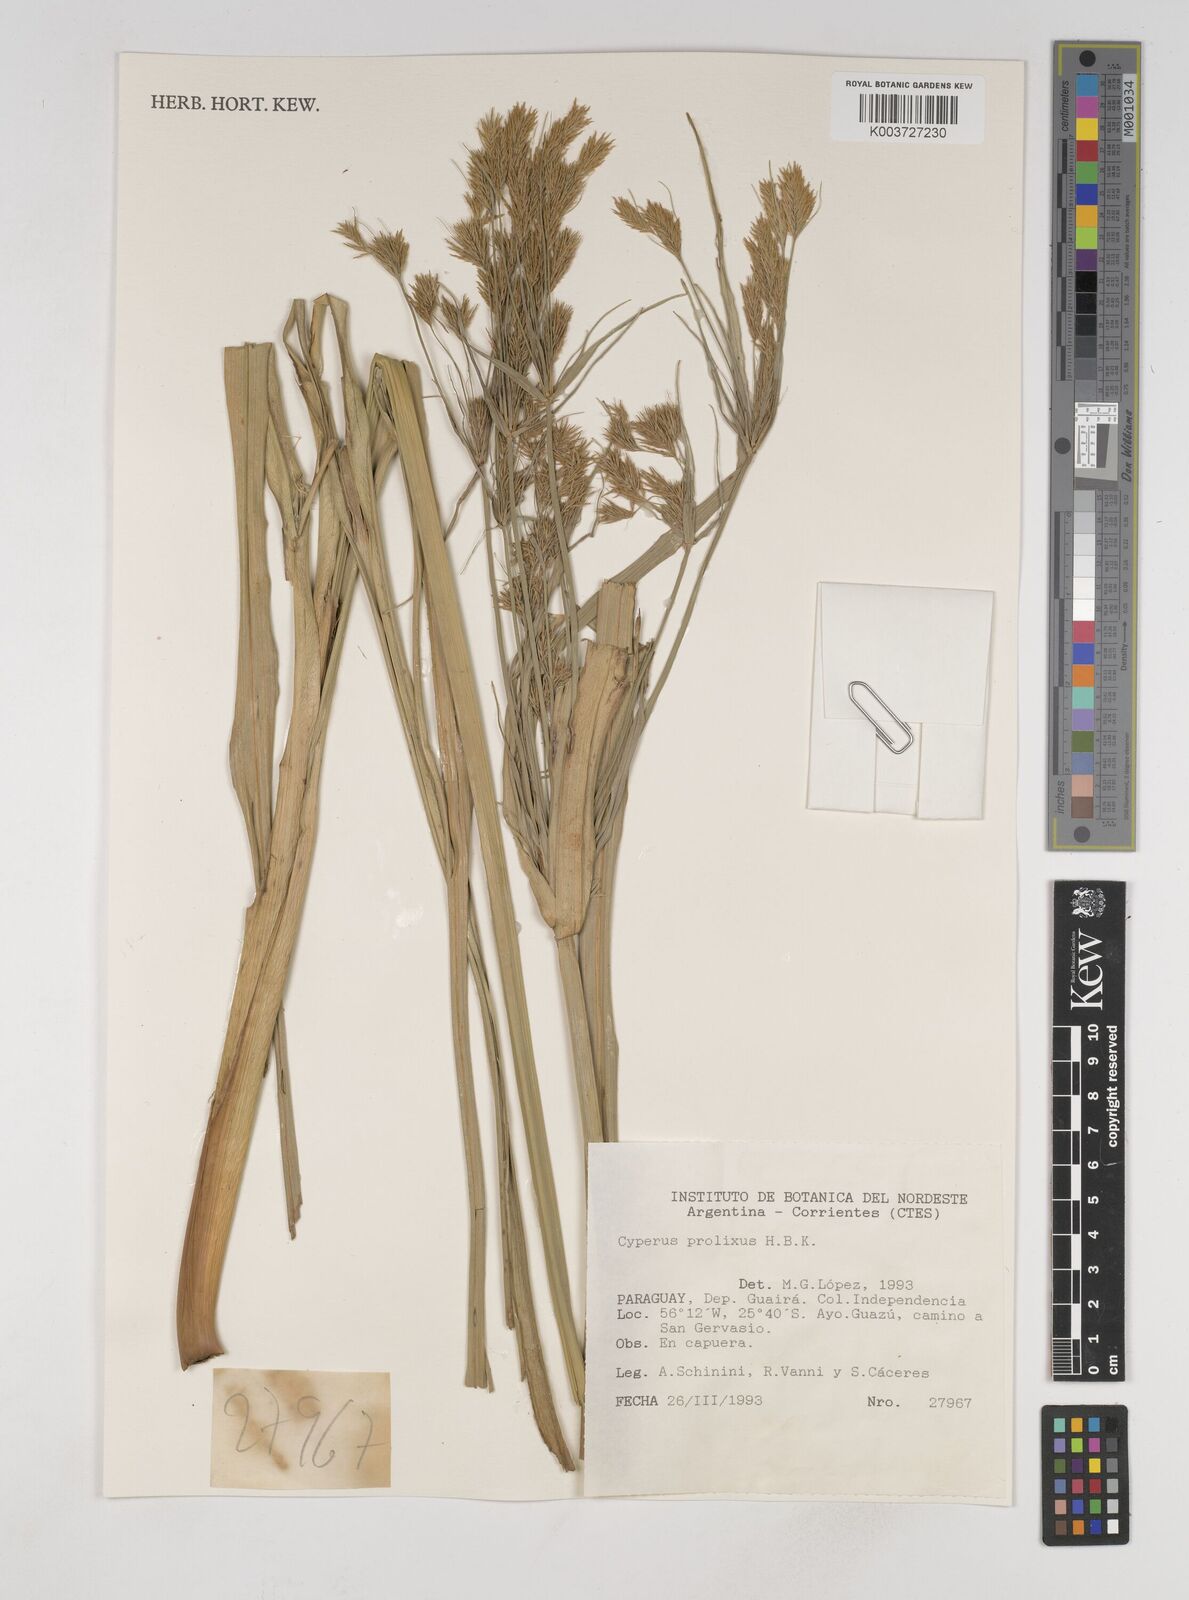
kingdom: Plantae
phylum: Tracheophyta
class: Liliopsida
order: Poales
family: Cyperaceae
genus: Cyperus
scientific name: Cyperus prolixus
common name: Mosquito flatsedge
